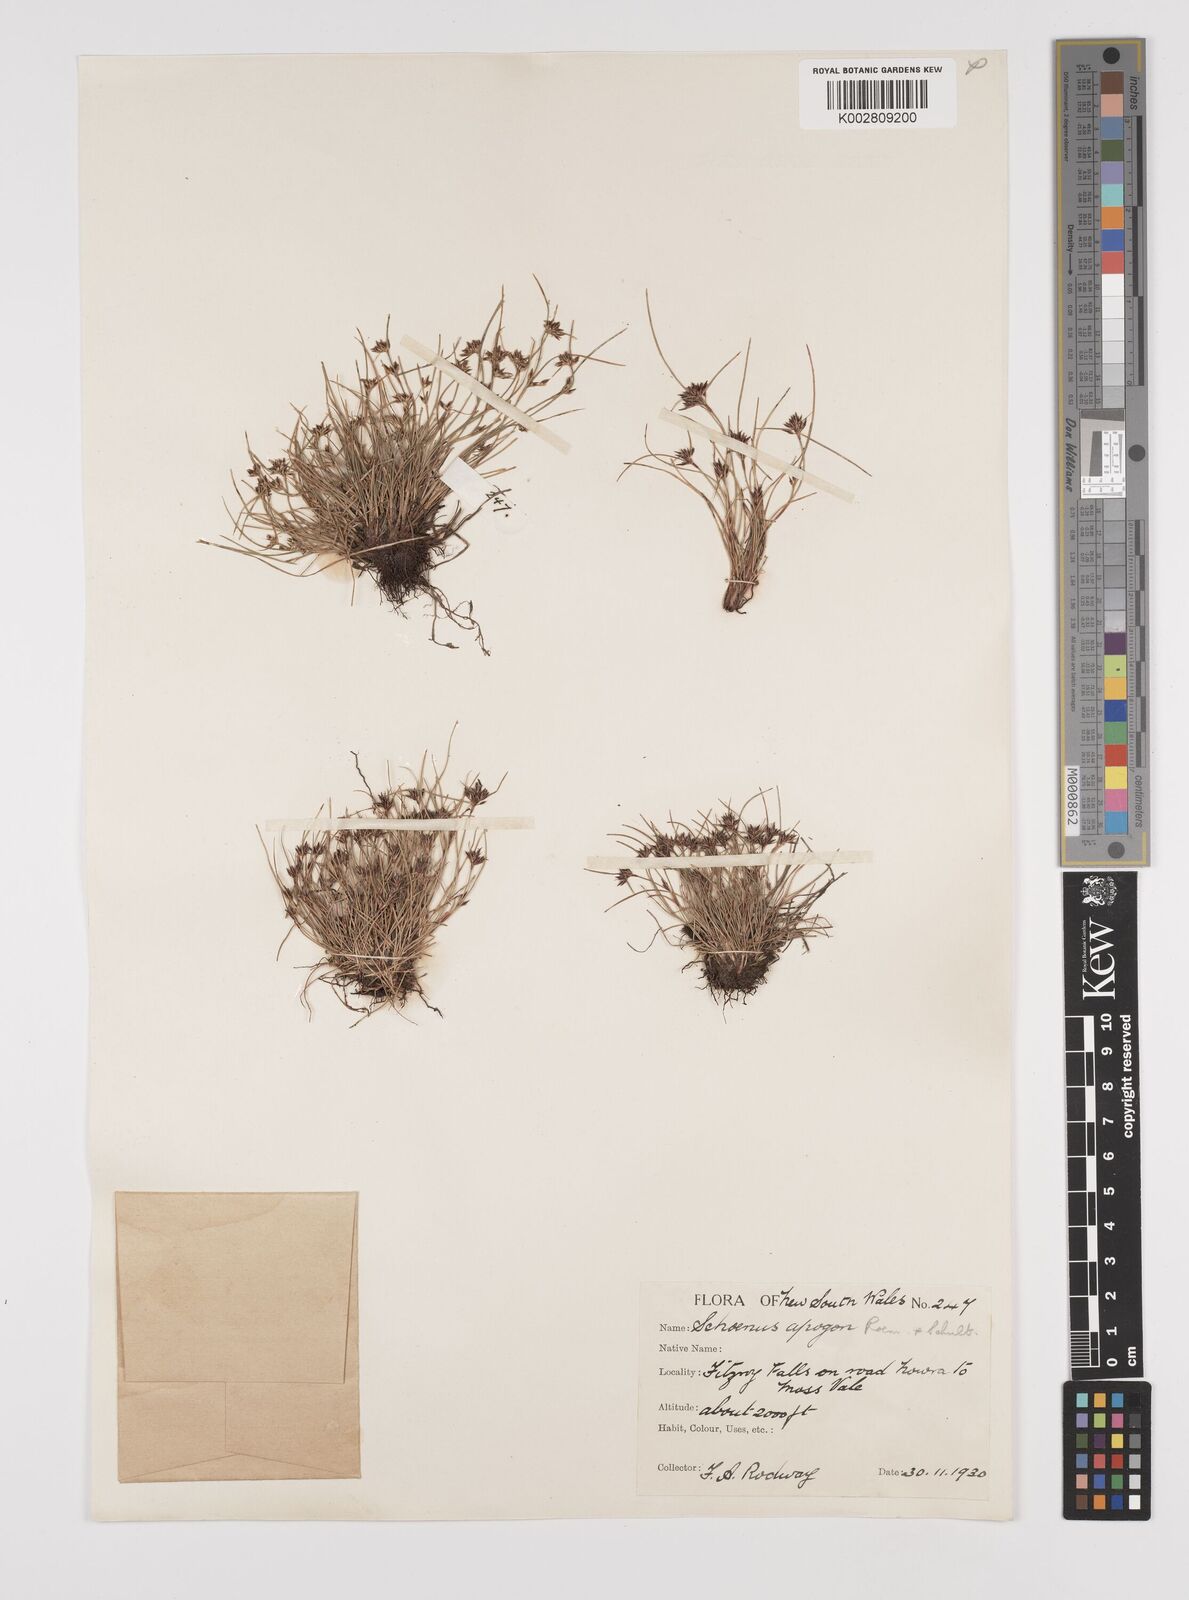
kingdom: Plantae
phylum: Tracheophyta
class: Liliopsida
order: Poales
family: Cyperaceae
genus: Schoenus
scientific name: Schoenus apogon
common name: Smooth bogrush
